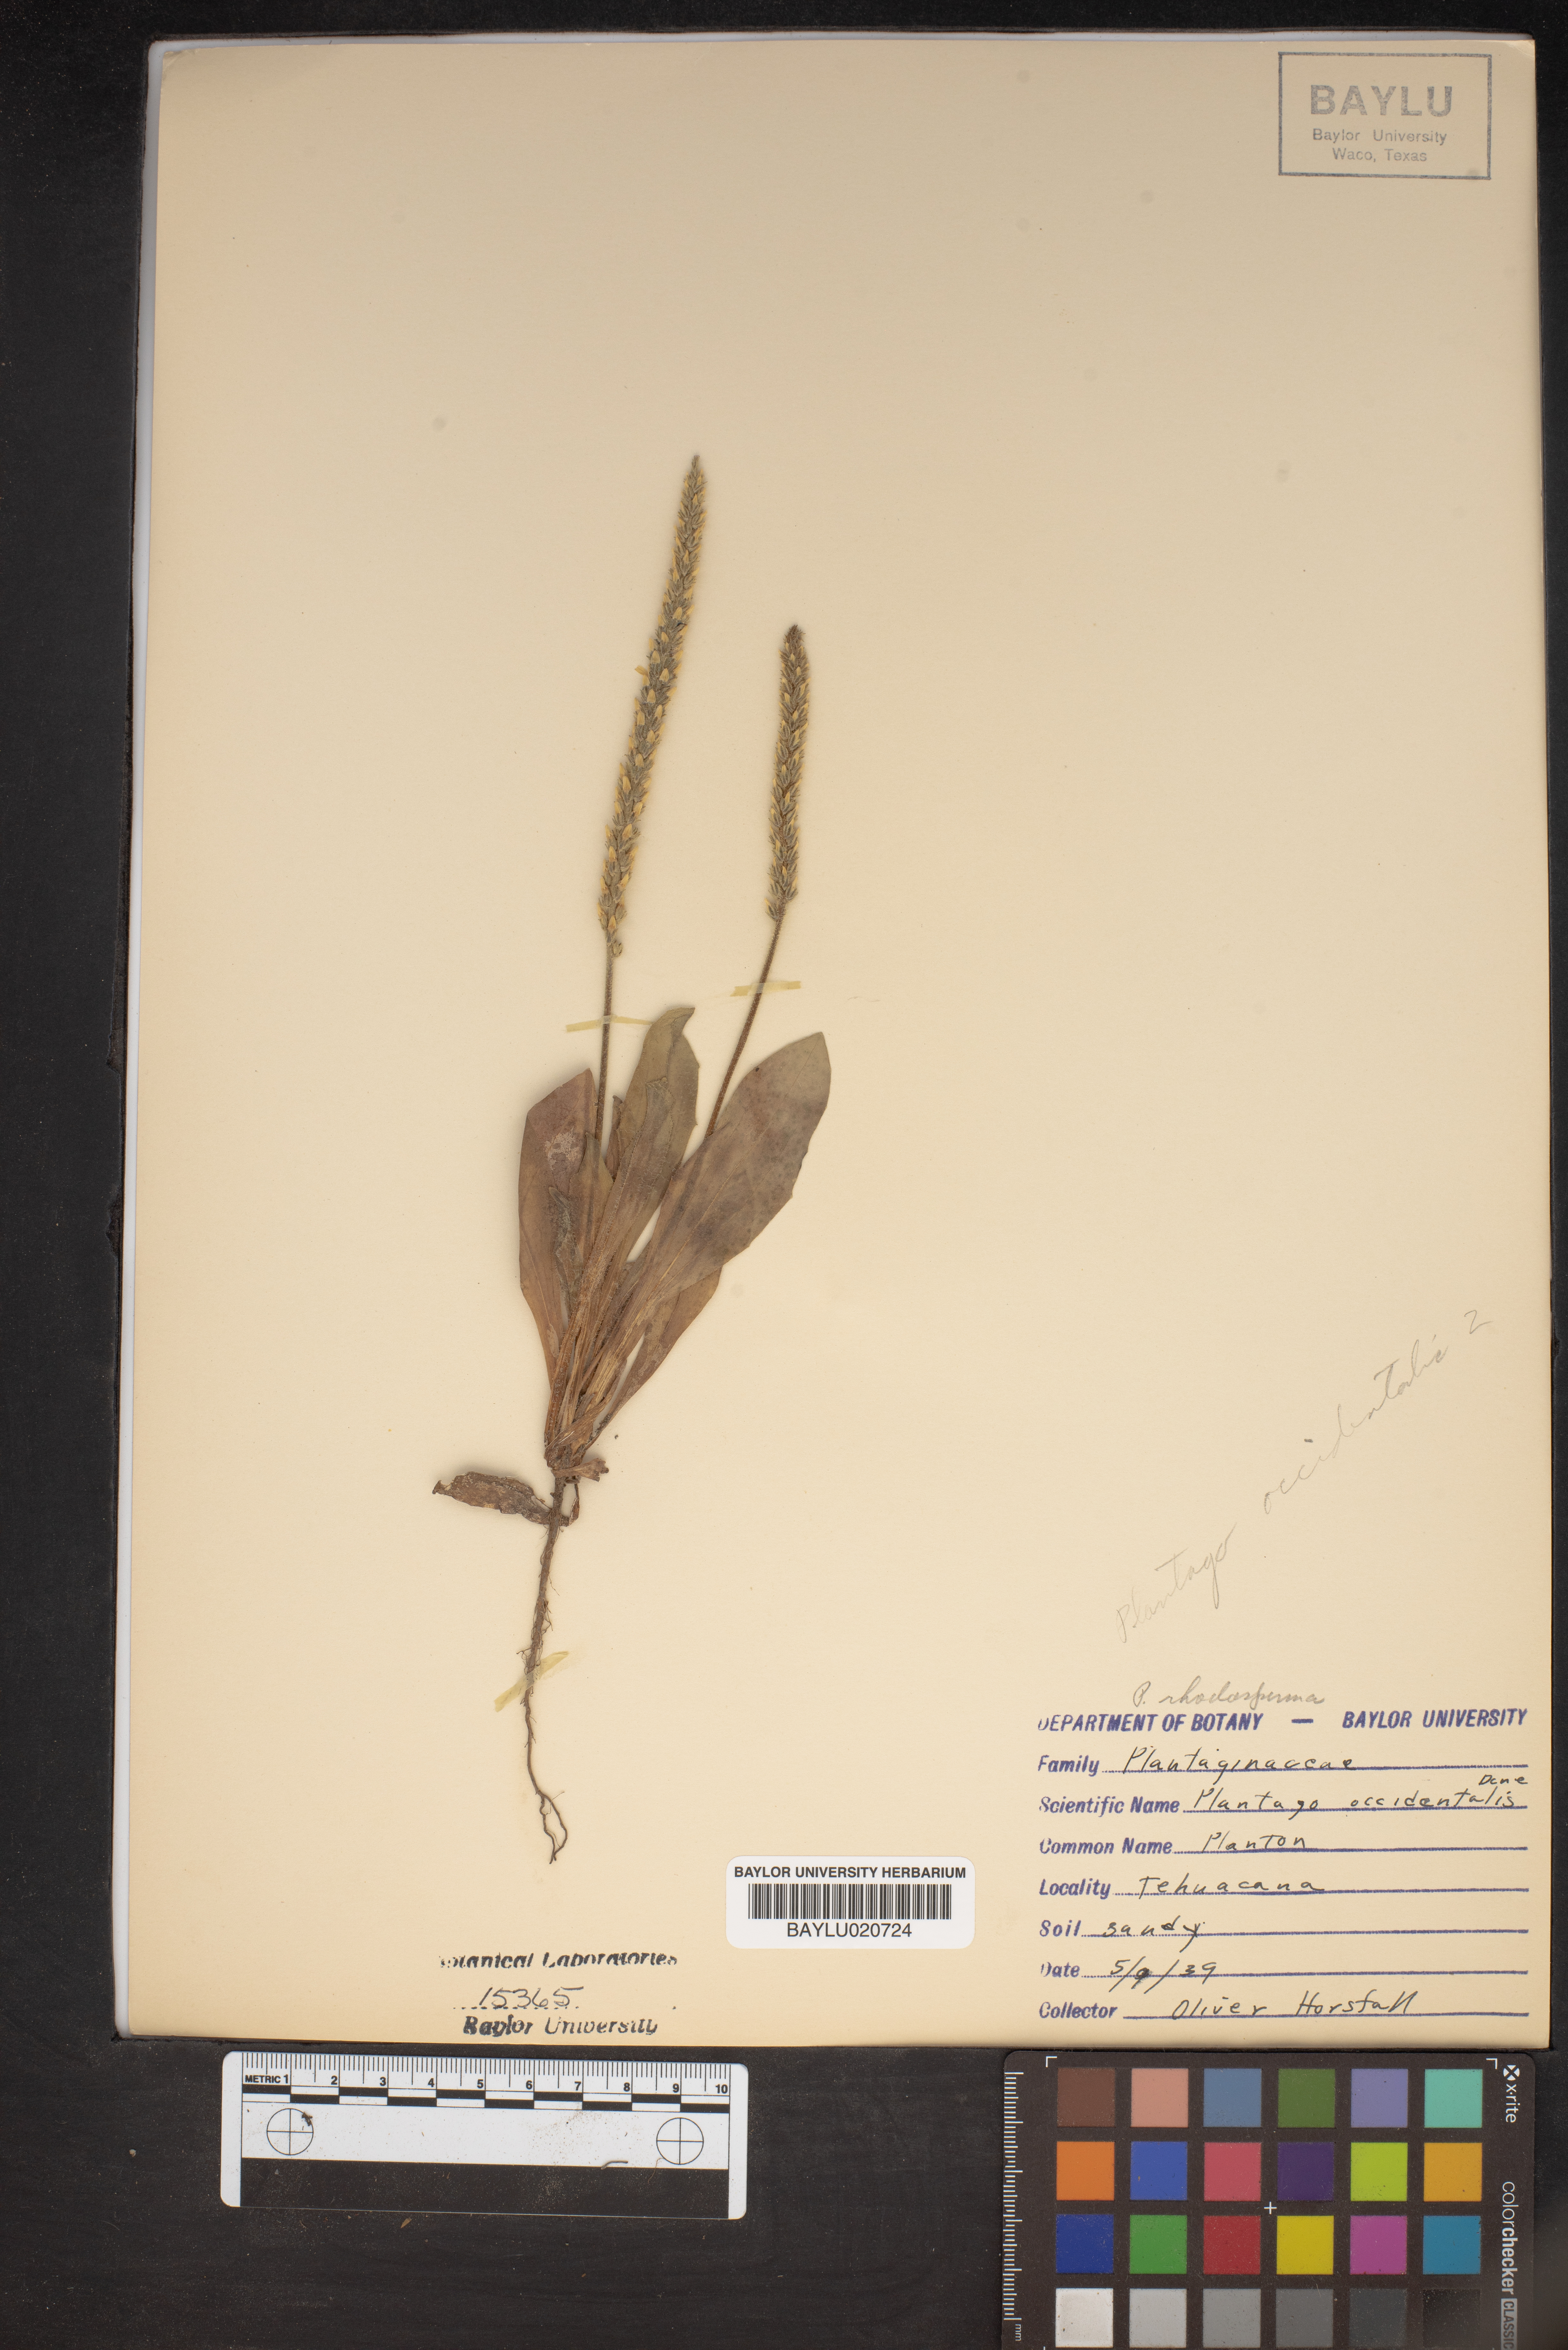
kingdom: Plantae
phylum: Tracheophyta
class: Magnoliopsida
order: Lamiales
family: Plantaginaceae
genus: Plantago
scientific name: Plantago myosuros
